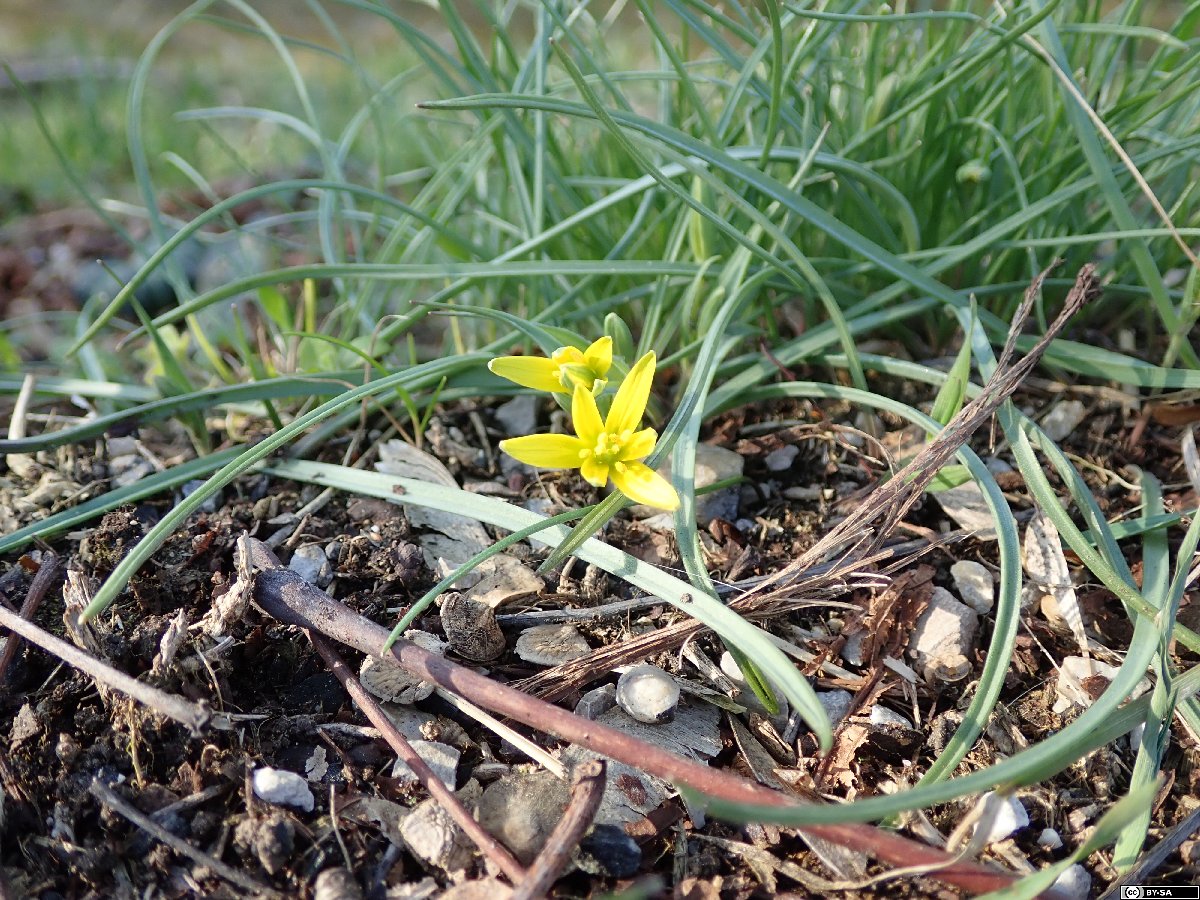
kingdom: Plantae
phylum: Tracheophyta
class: Liliopsida
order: Liliales
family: Liliaceae
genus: Gagea
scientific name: Gagea pratensis
